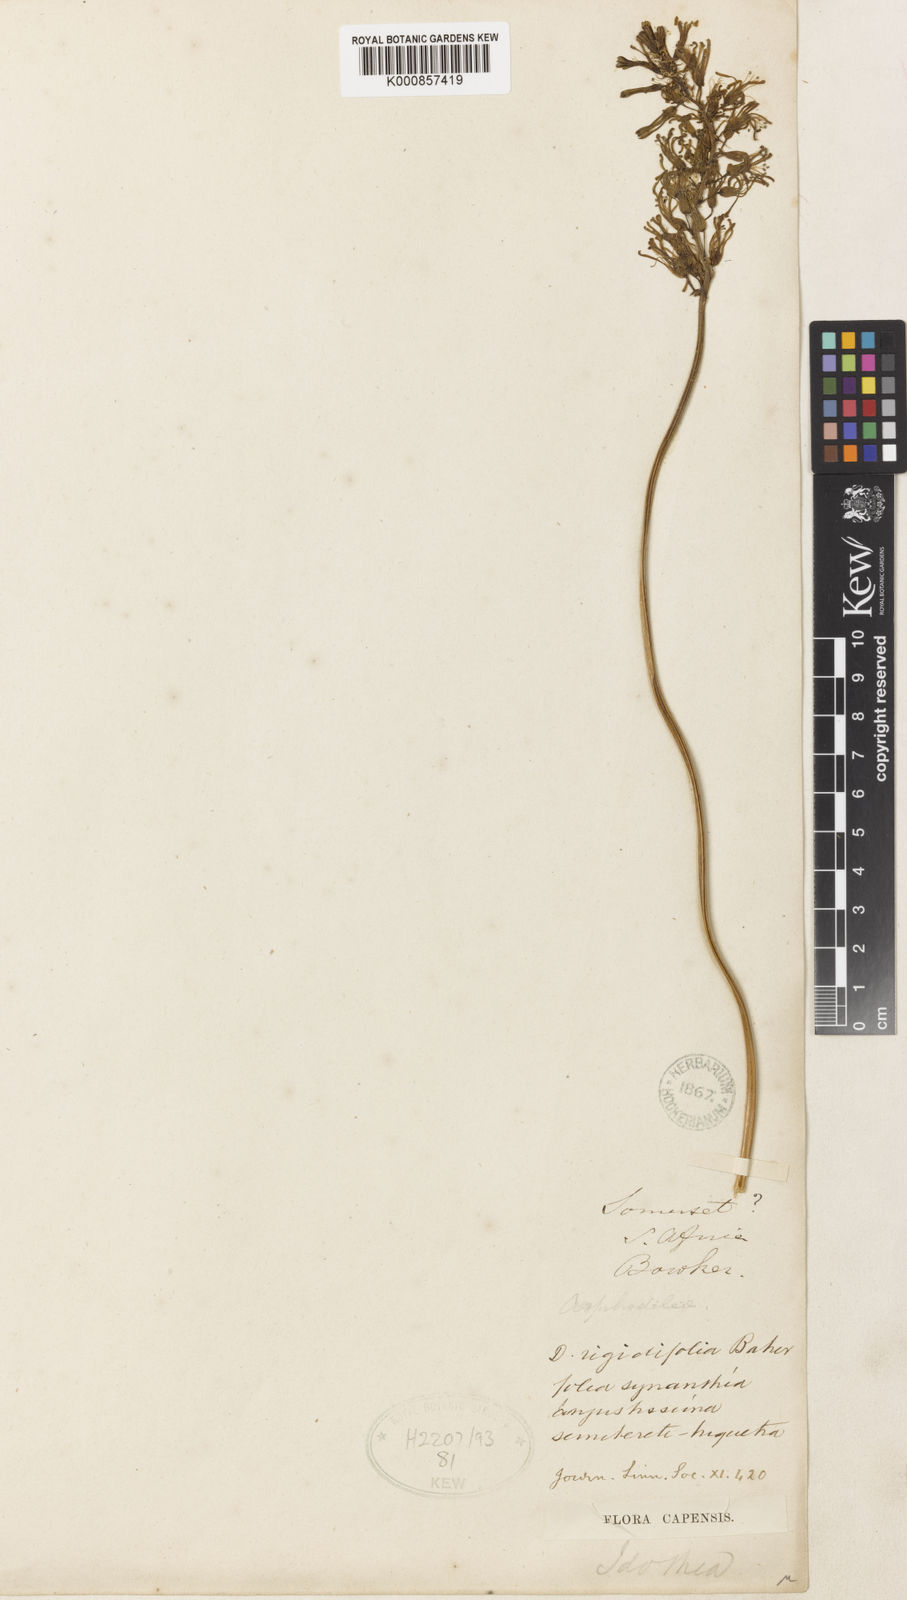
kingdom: Plantae
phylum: Tracheophyta
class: Liliopsida
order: Asparagales
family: Asparagaceae
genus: Drimia
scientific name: Drimia media
